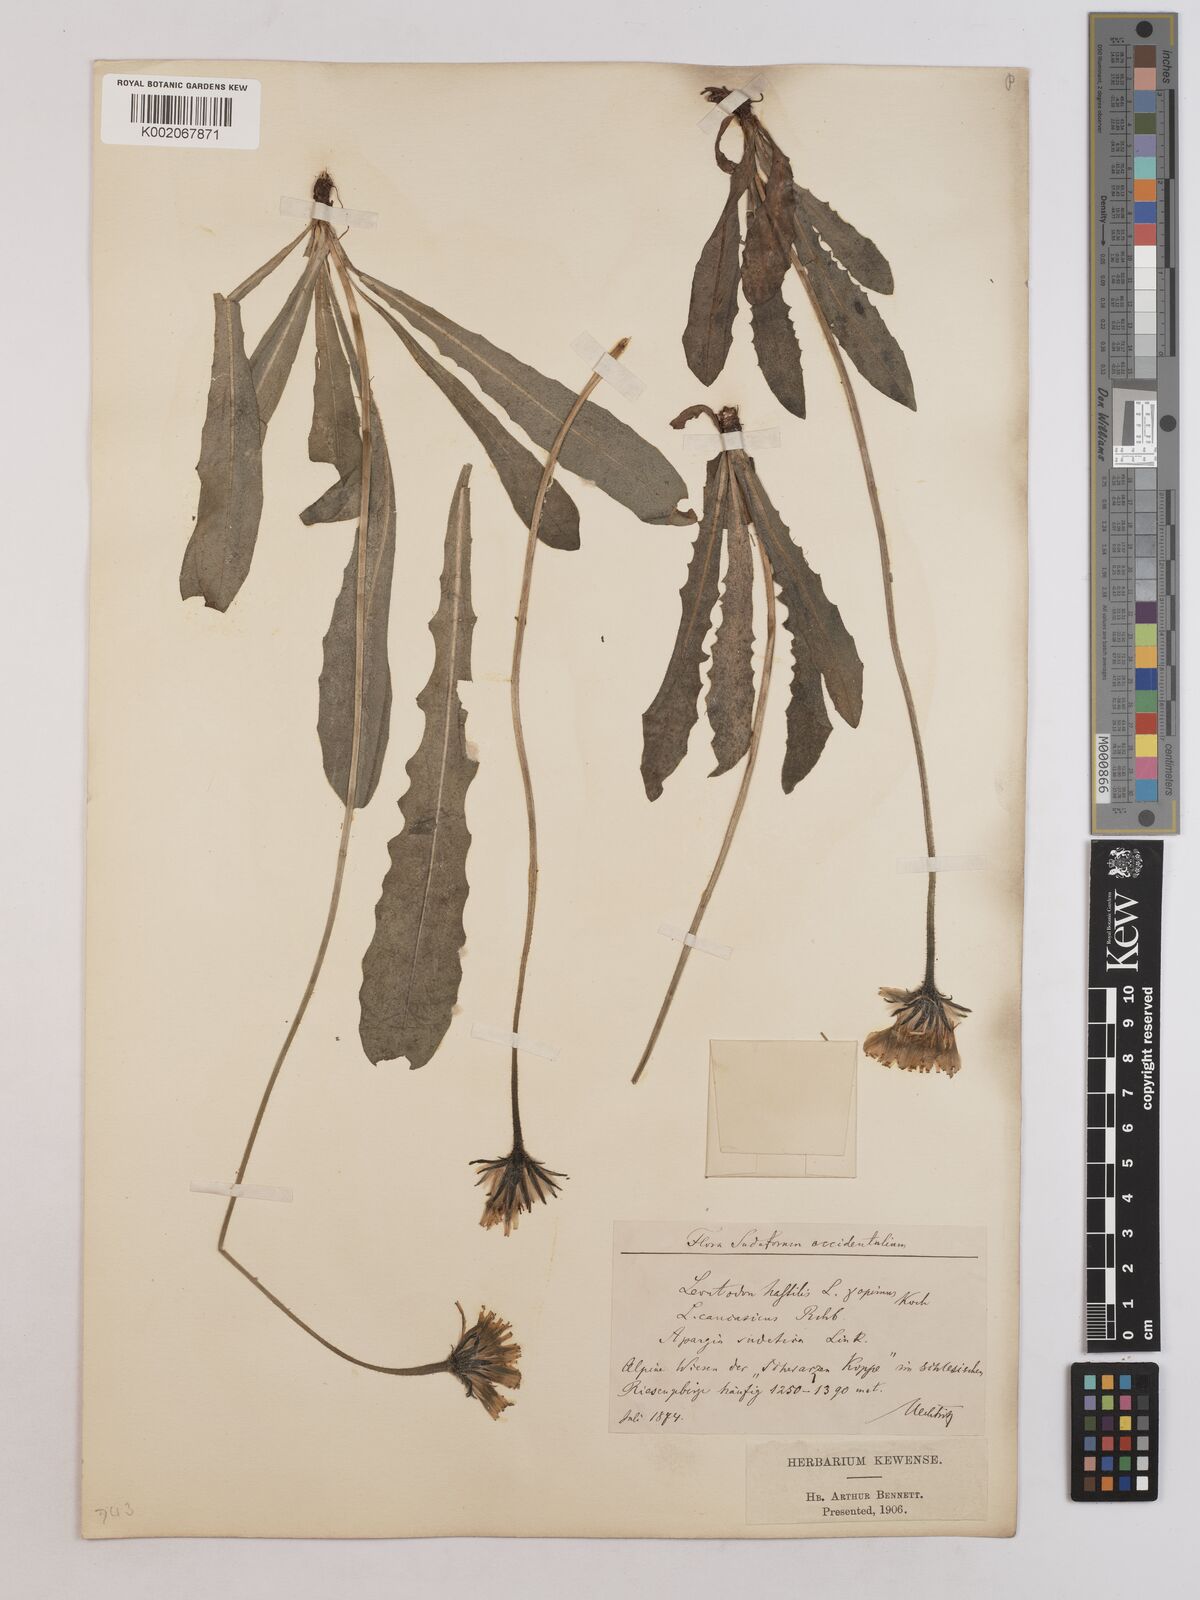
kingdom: Plantae
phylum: Tracheophyta
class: Magnoliopsida
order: Asterales
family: Asteraceae
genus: Leontodon
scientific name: Leontodon hispidus
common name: Rough hawkbit
